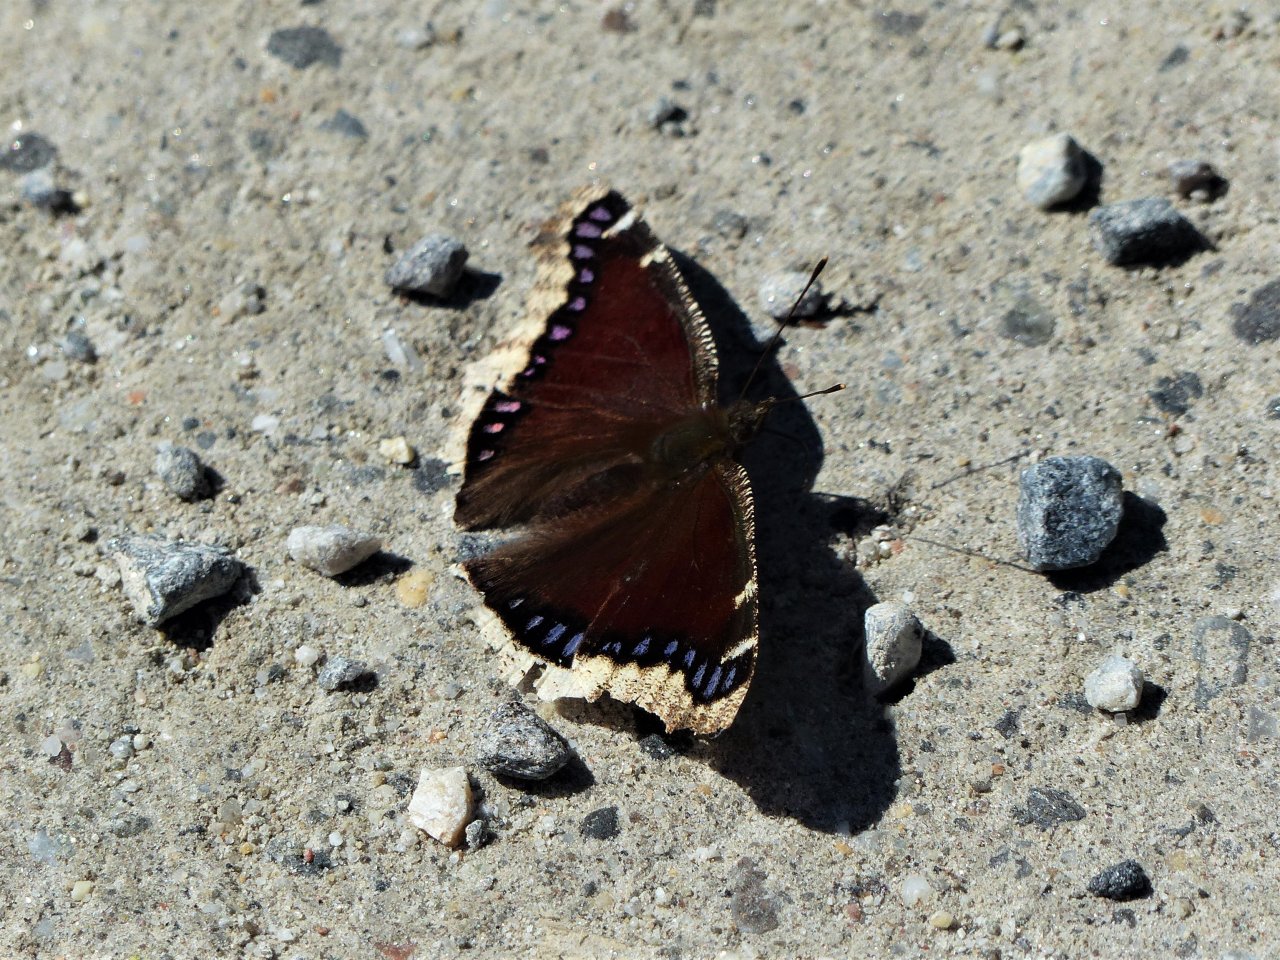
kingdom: Animalia
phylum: Arthropoda
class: Insecta
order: Lepidoptera
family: Nymphalidae
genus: Nymphalis
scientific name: Nymphalis antiopa
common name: Mourning Cloak
